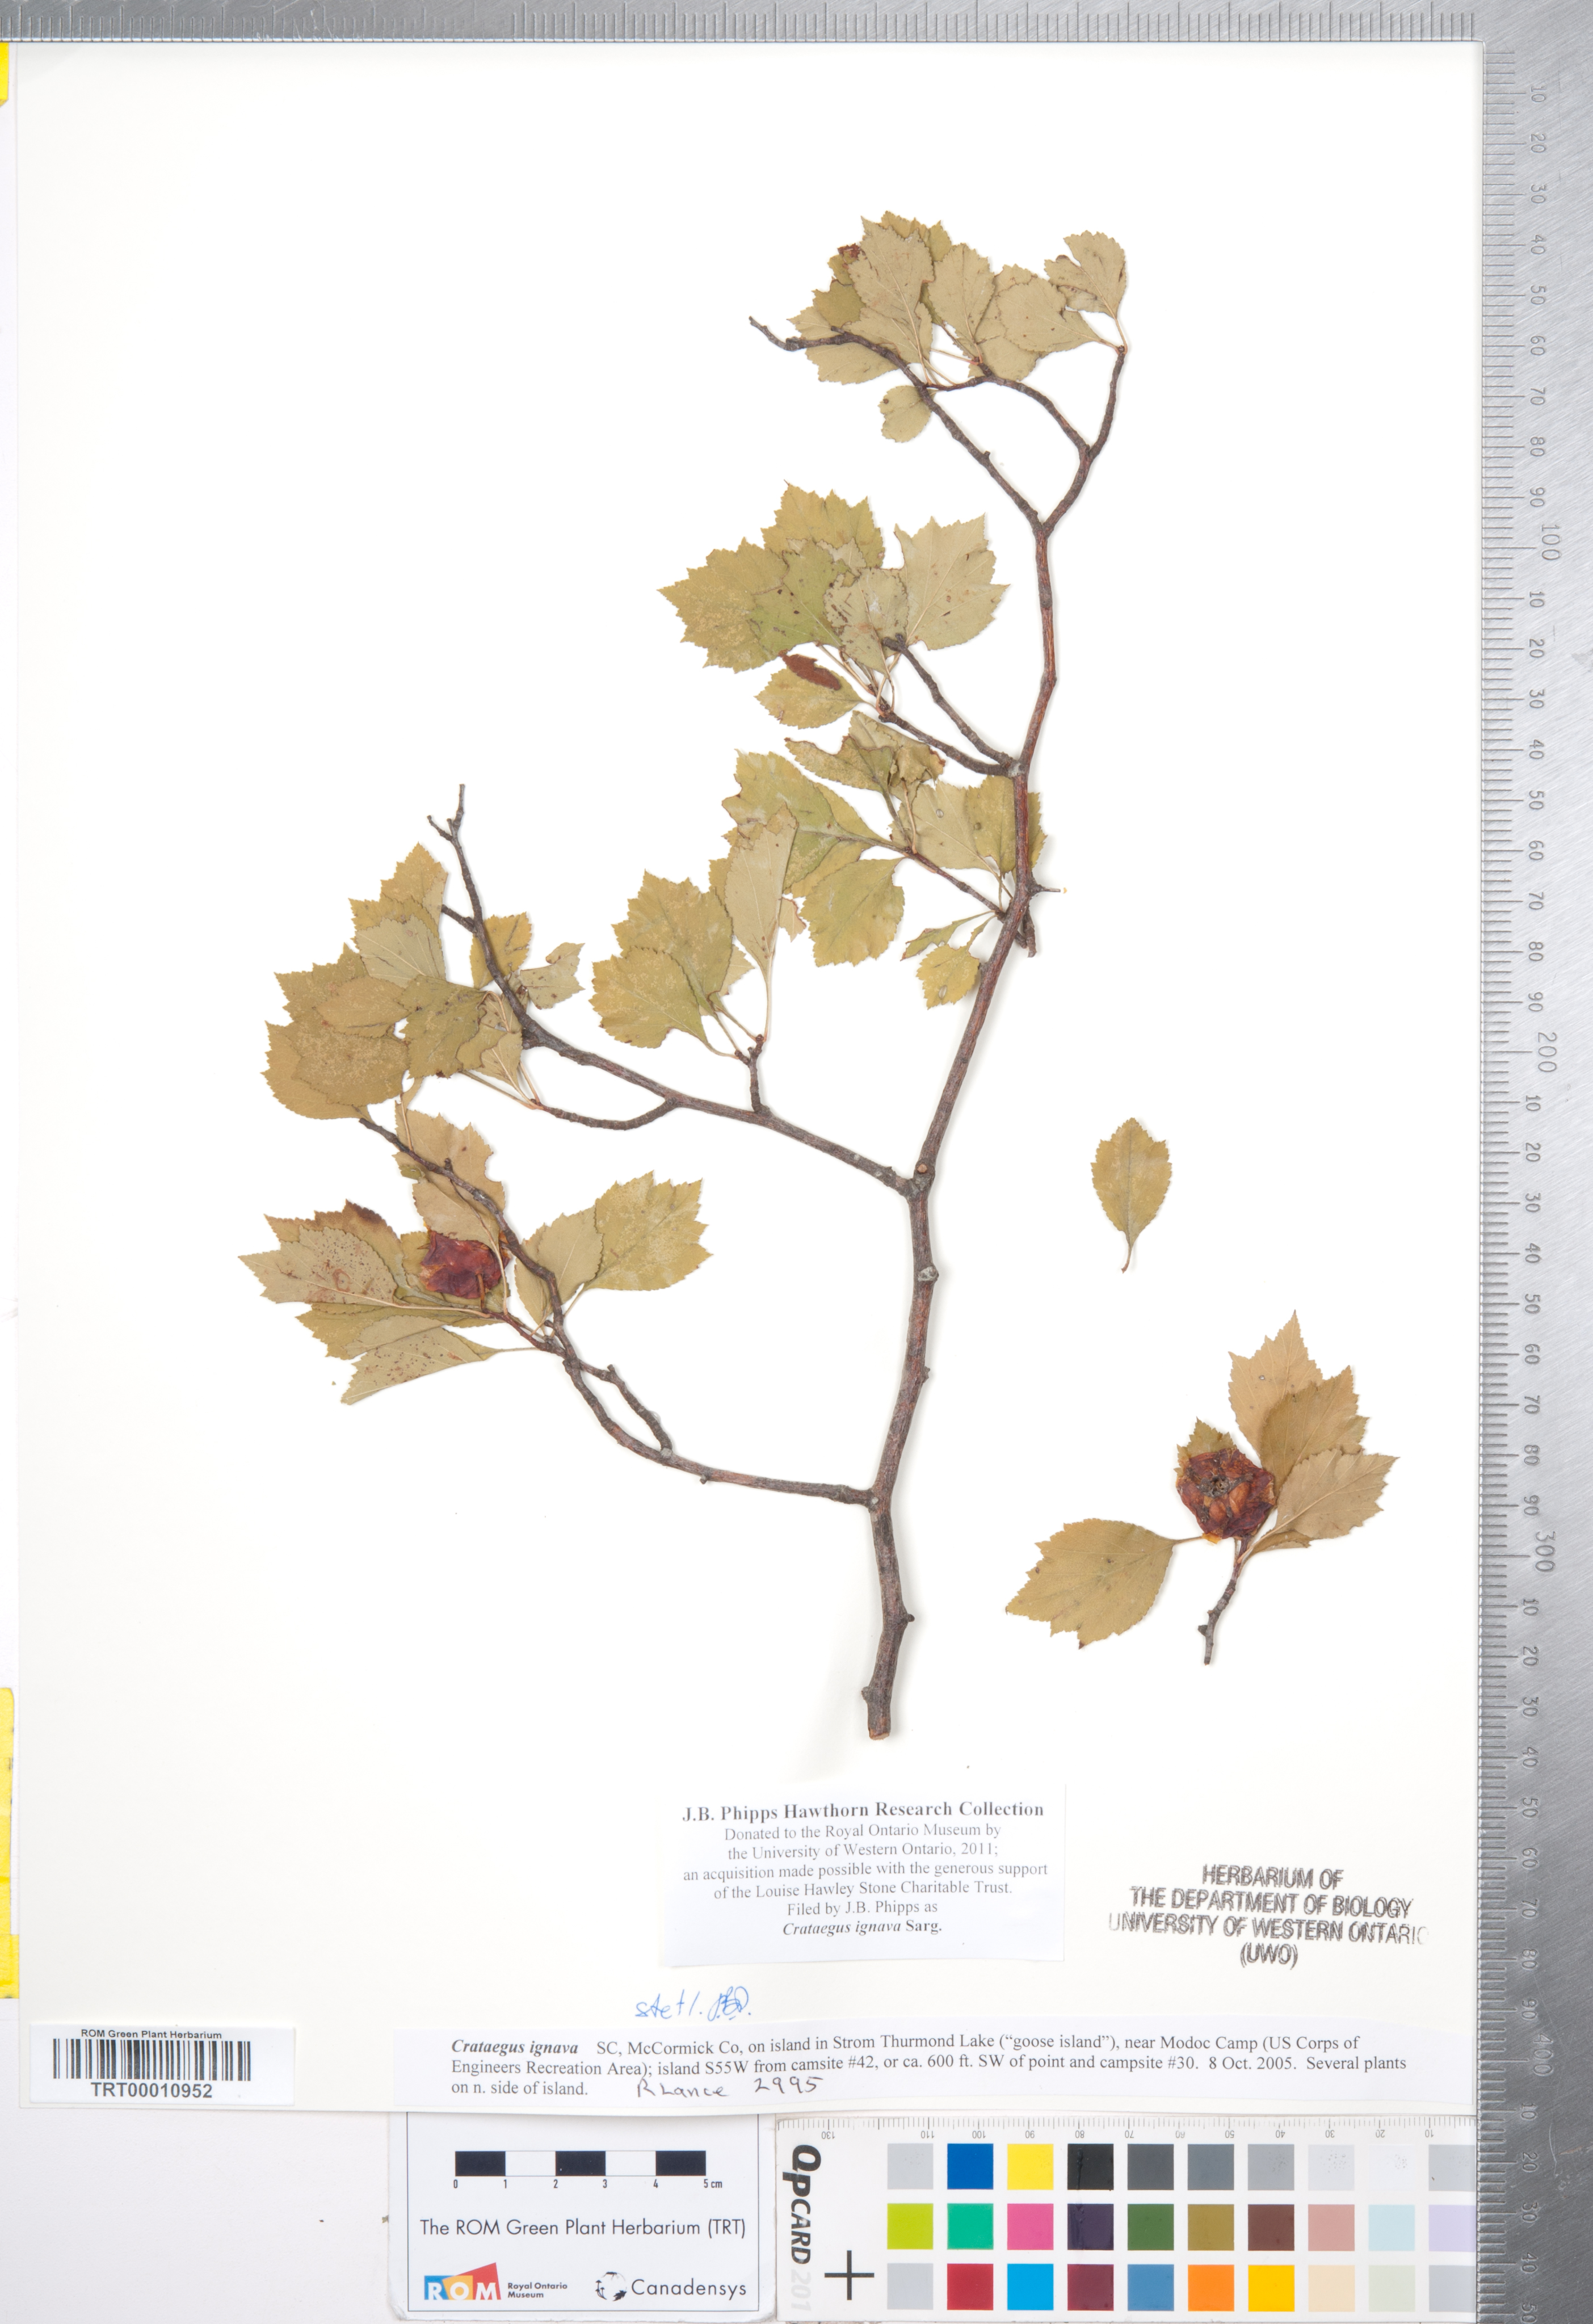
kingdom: Plantae
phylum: Tracheophyta
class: Magnoliopsida
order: Rosales
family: Rosaceae
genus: Crataegus
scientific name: Crataegus ignava
